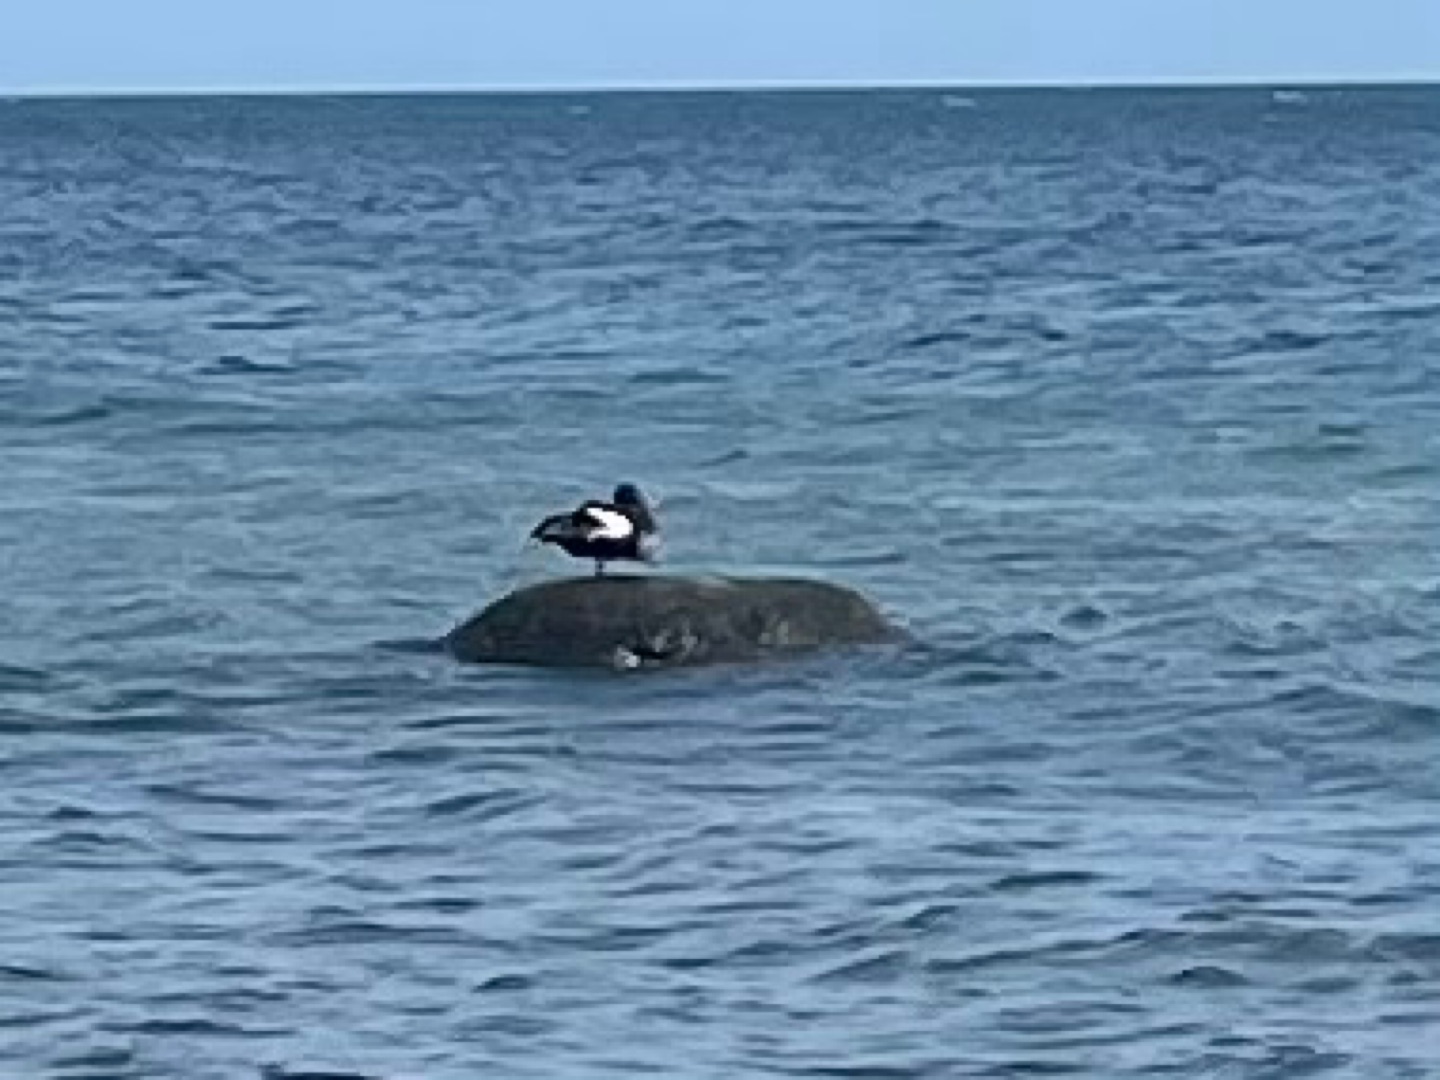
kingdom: Animalia
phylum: Chordata
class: Aves
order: Anseriformes
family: Anatidae
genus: Somateria
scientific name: Somateria mollissima
